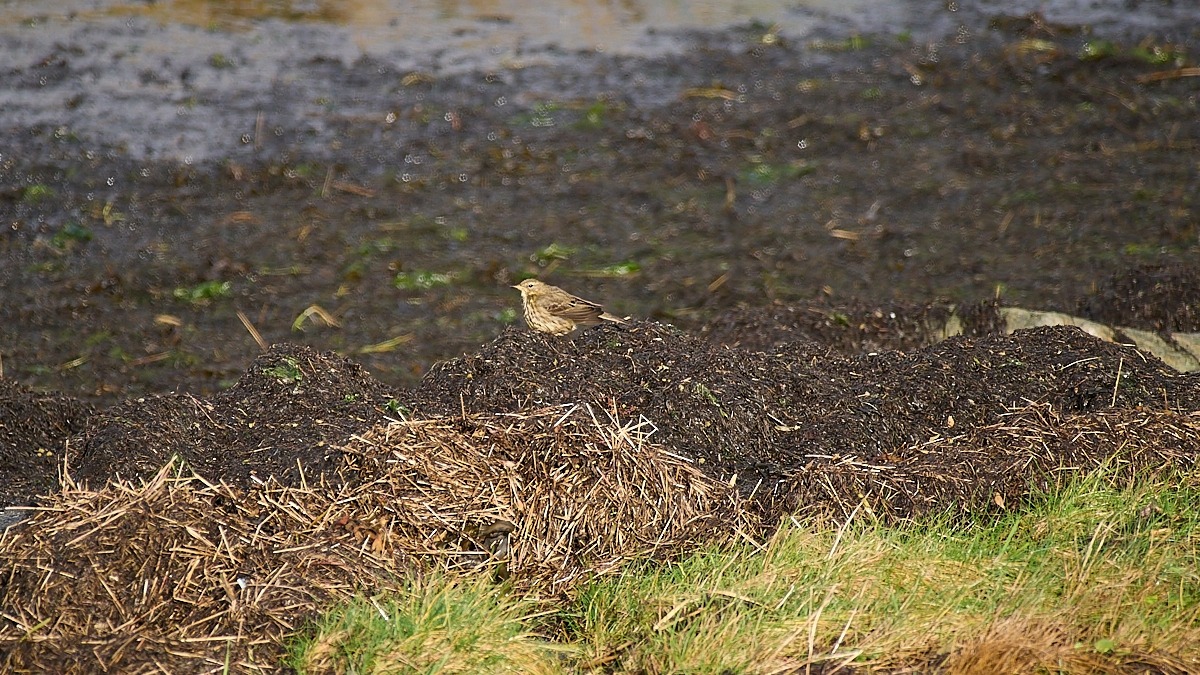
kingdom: Animalia
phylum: Chordata
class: Aves
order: Passeriformes
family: Motacillidae
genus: Anthus
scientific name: Anthus petrosus
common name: Skærpiber
